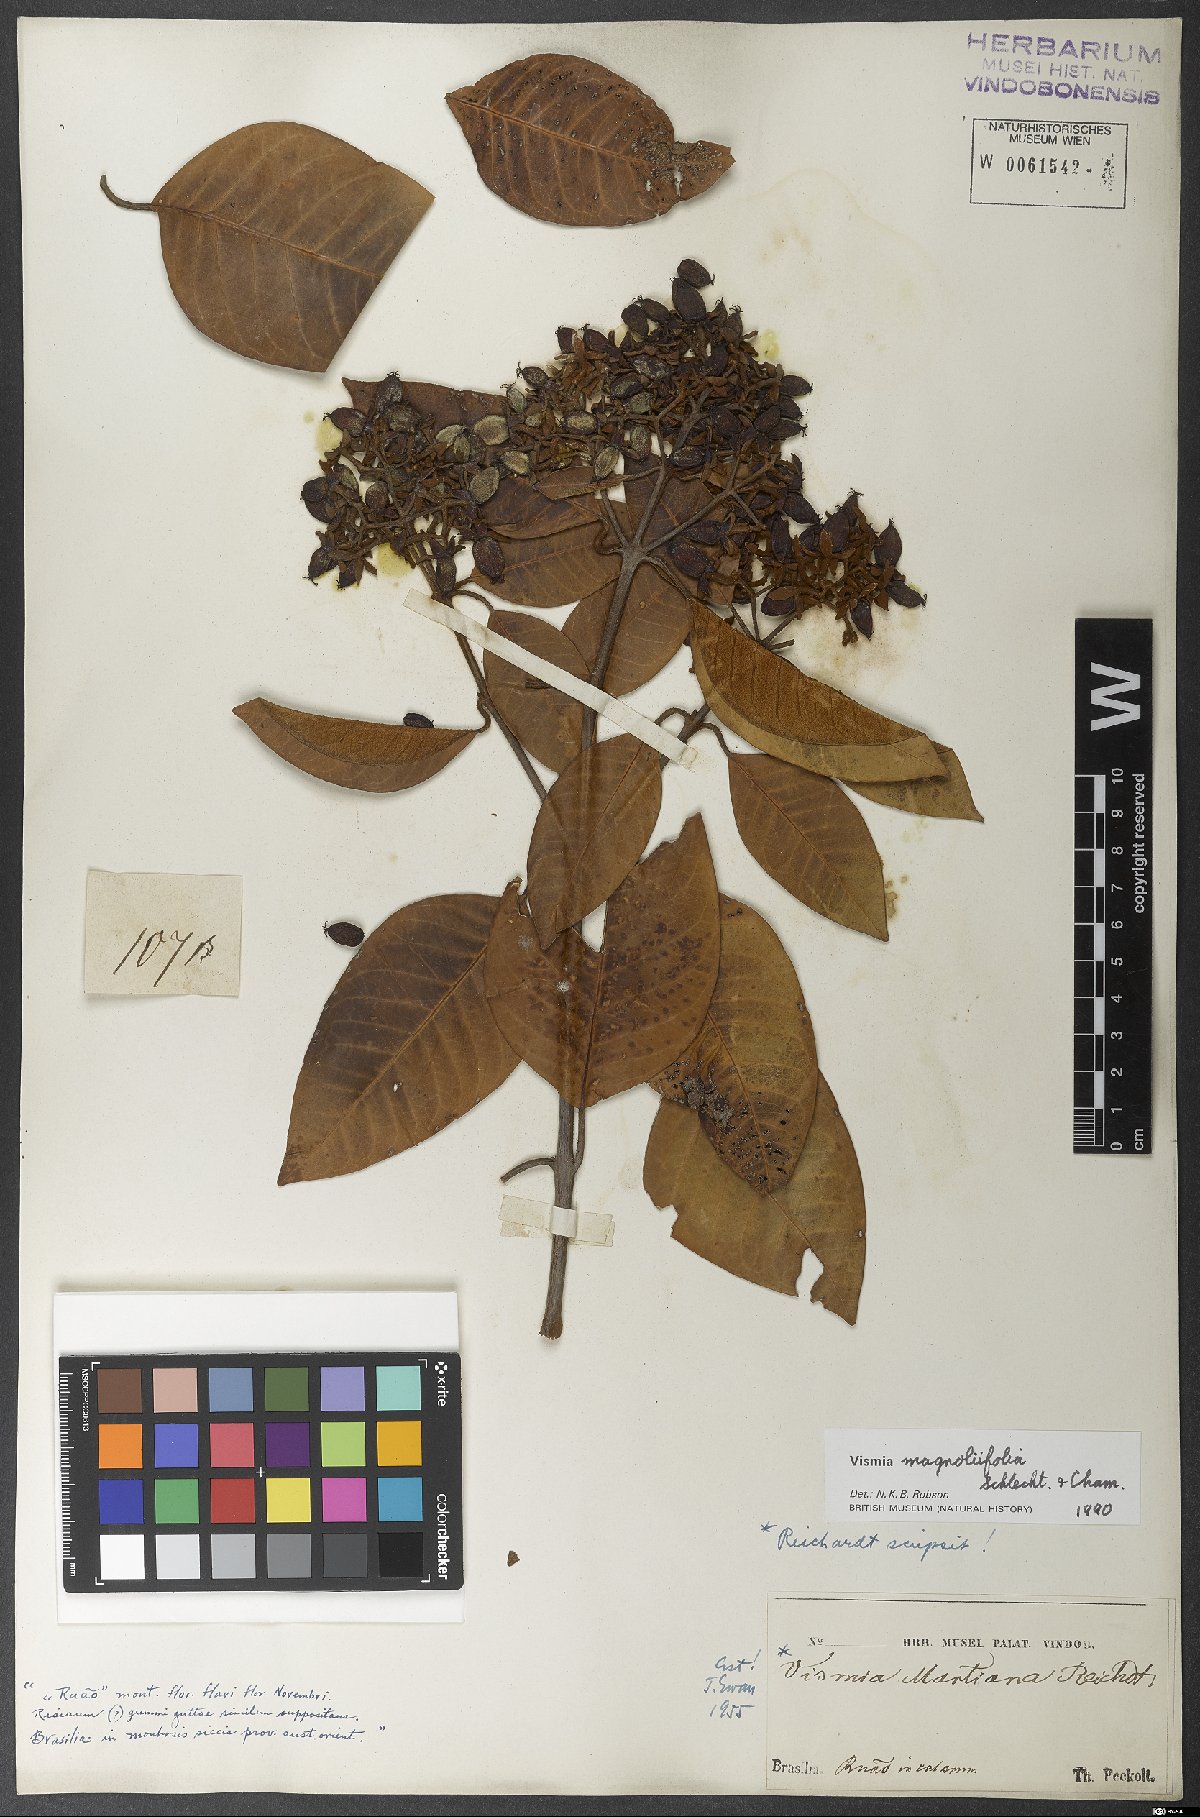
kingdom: Plantae
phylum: Tracheophyta
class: Magnoliopsida
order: Malpighiales
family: Hypericaceae
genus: Vismia
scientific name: Vismia magnoliifolia
